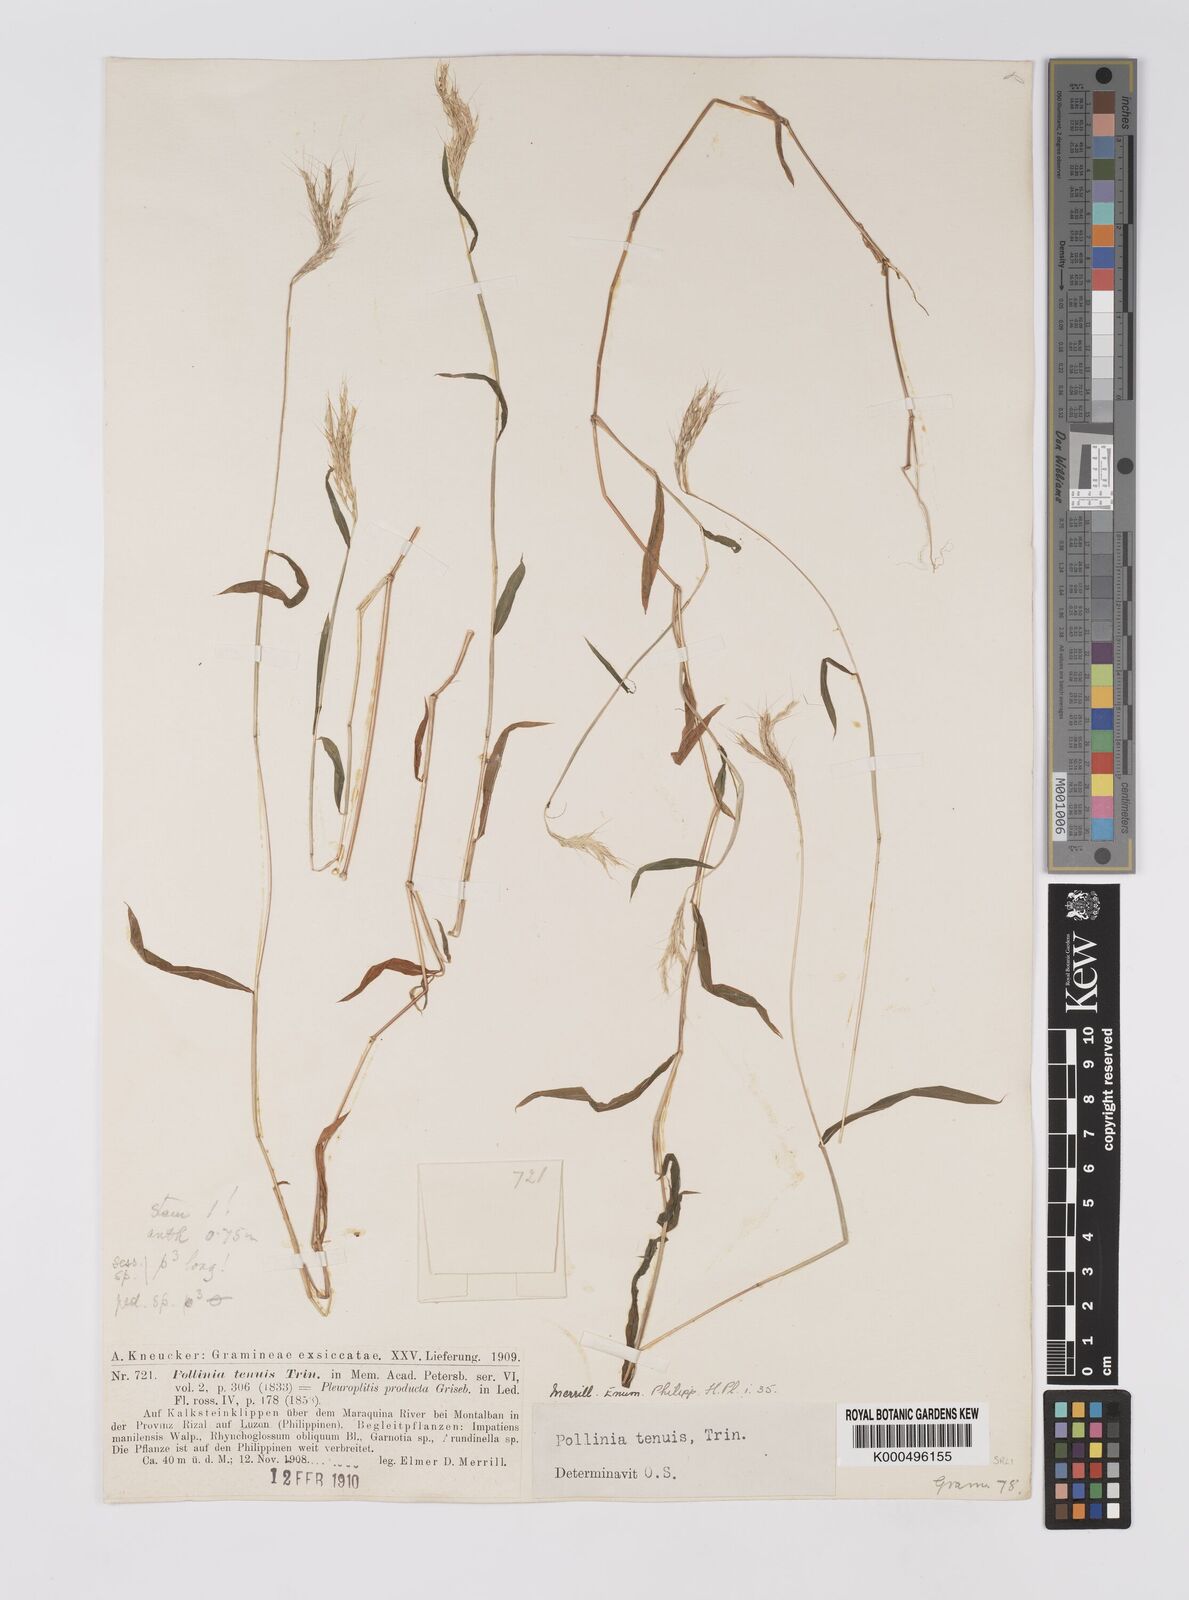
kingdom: Plantae
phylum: Tracheophyta
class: Liliopsida
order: Poales
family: Poaceae
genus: Microstegium
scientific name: Microstegium tenue
